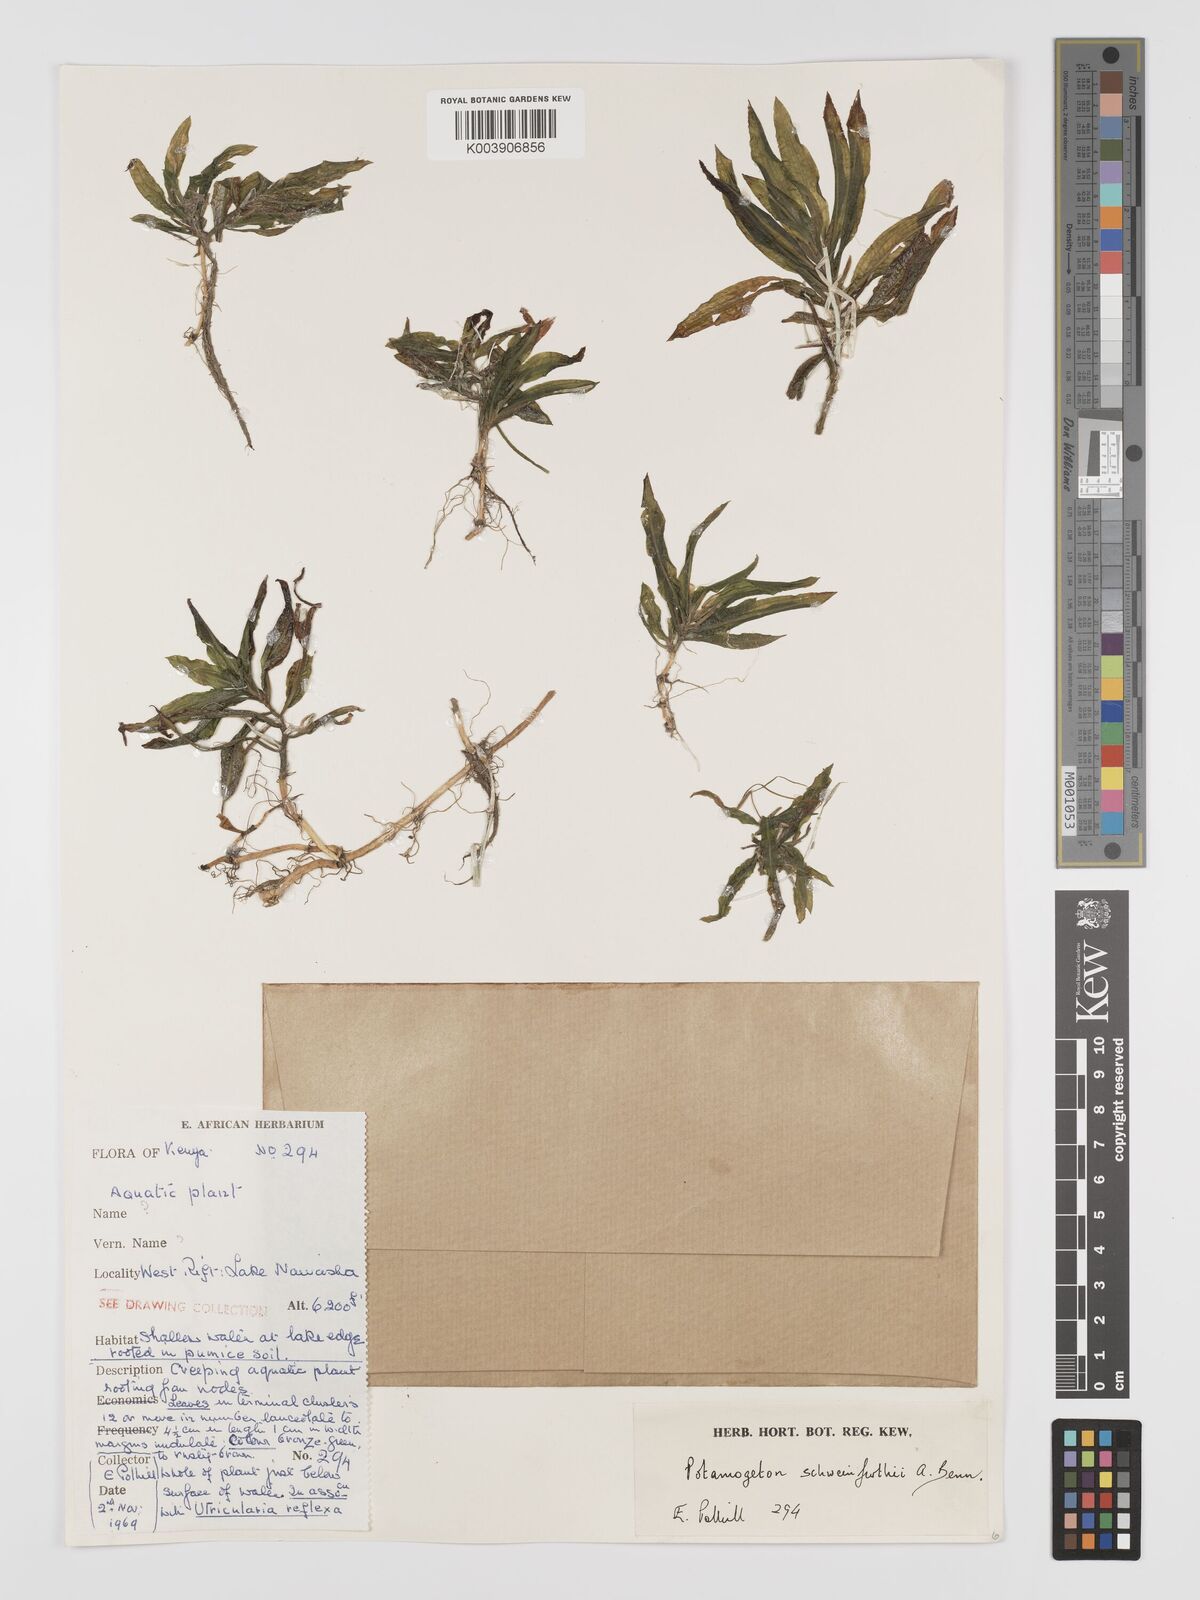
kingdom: Plantae
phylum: Tracheophyta
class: Liliopsida
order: Alismatales
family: Potamogetonaceae
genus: Potamogeton
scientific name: Potamogeton schweinfurthii
